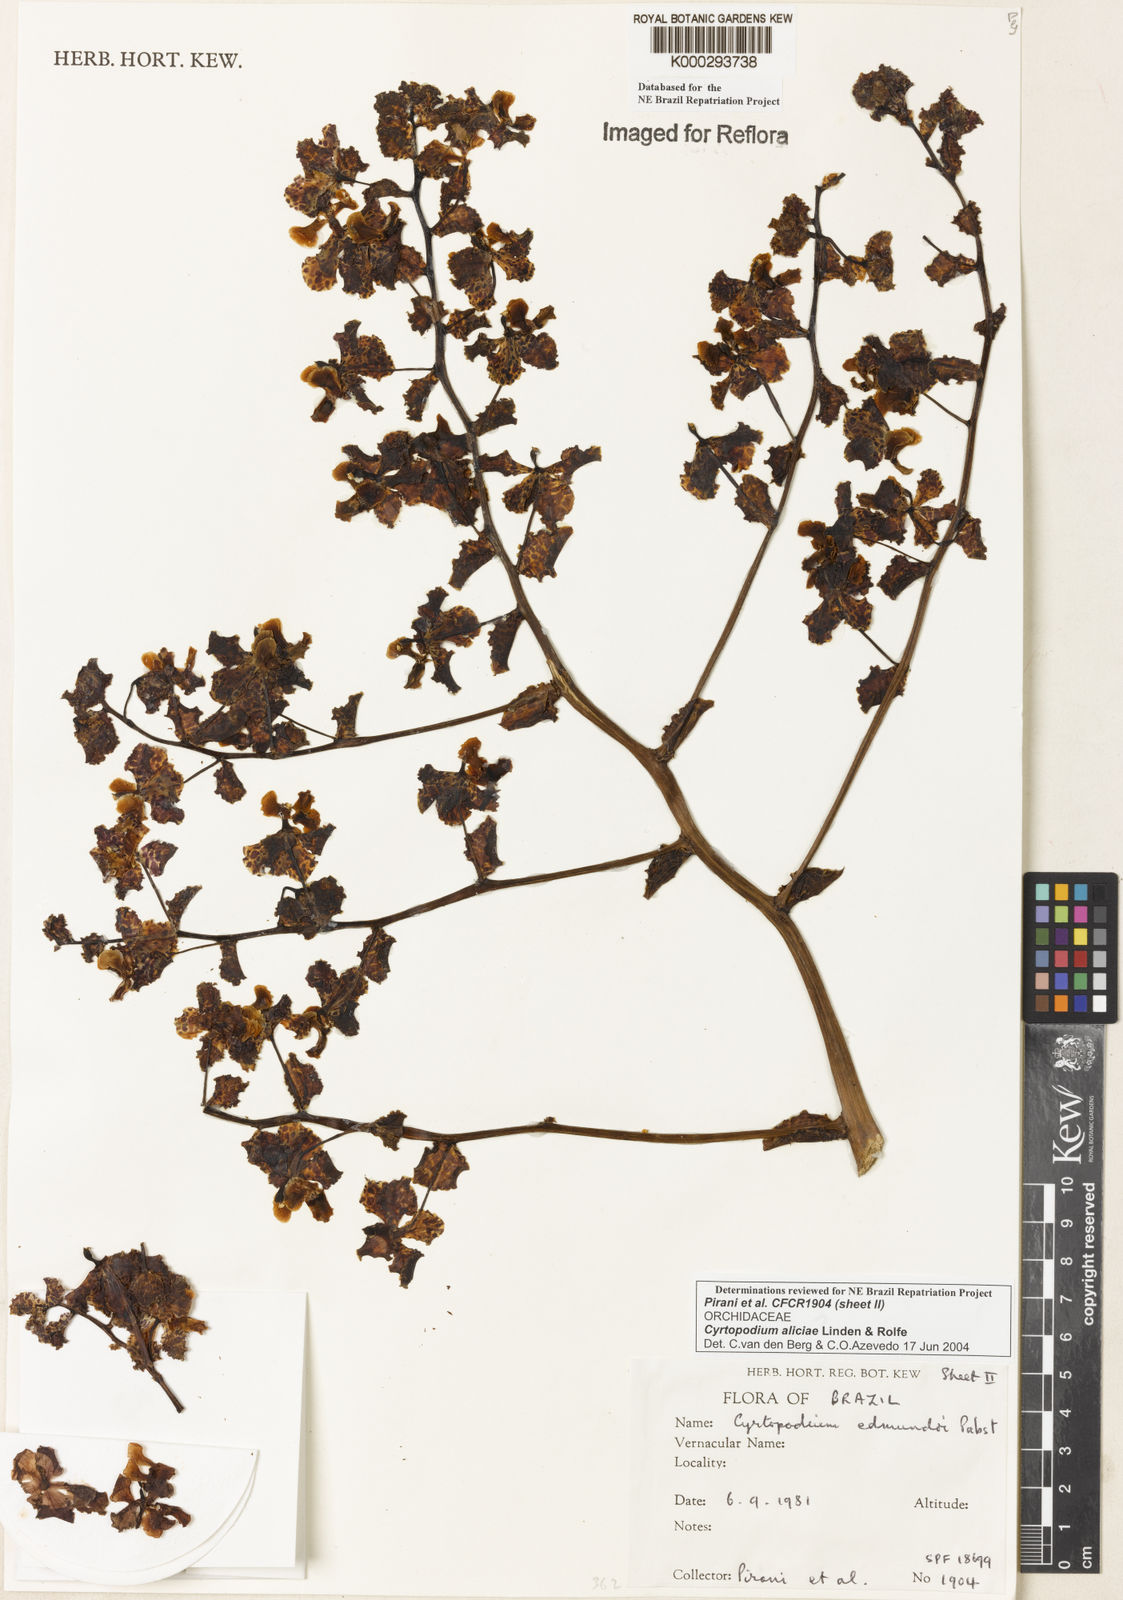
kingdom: Plantae
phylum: Tracheophyta
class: Liliopsida
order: Asparagales
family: Orchidaceae
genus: Cyrtopodium
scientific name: Cyrtopodium aliciae
